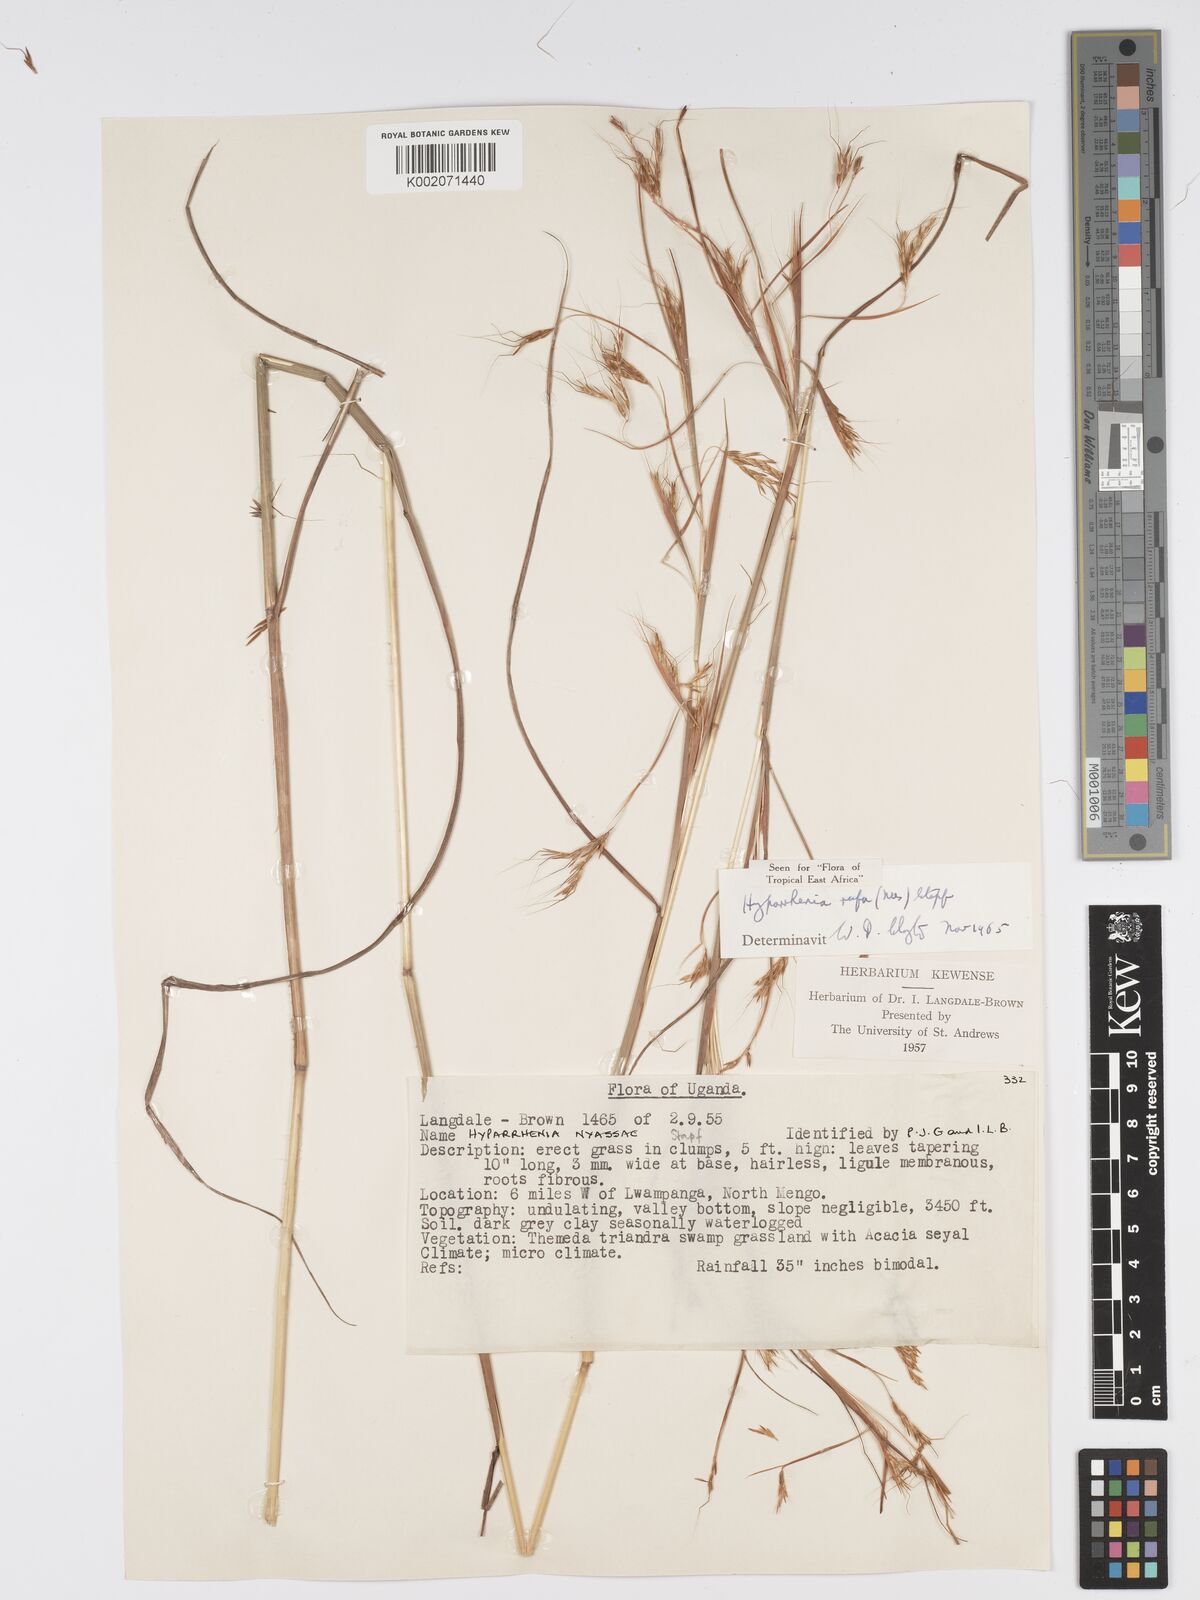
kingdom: Plantae
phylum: Tracheophyta
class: Liliopsida
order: Poales
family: Poaceae
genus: Hyparrhenia
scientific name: Hyparrhenia rufa
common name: Jaraguagrass
